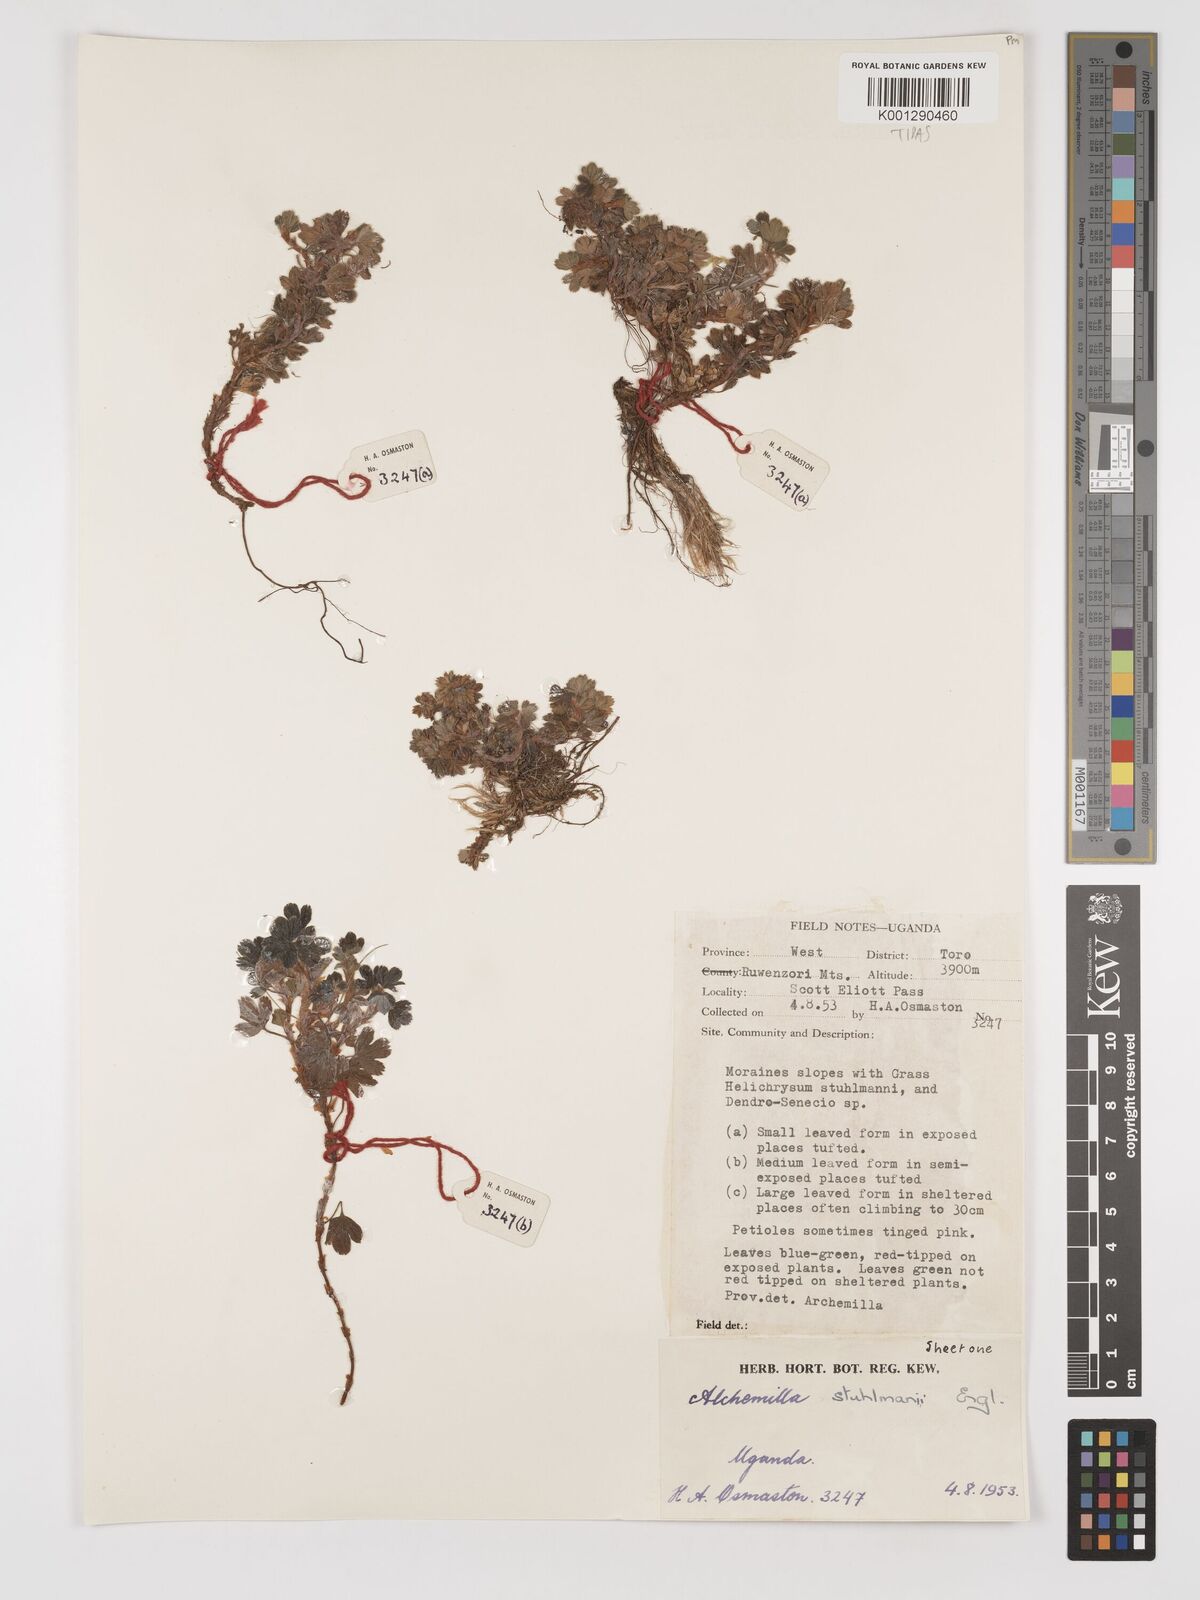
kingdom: Plantae
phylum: Tracheophyta
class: Magnoliopsida
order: Rosales
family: Rosaceae
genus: Alchemilla
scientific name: Alchemilla stuhlmannii
